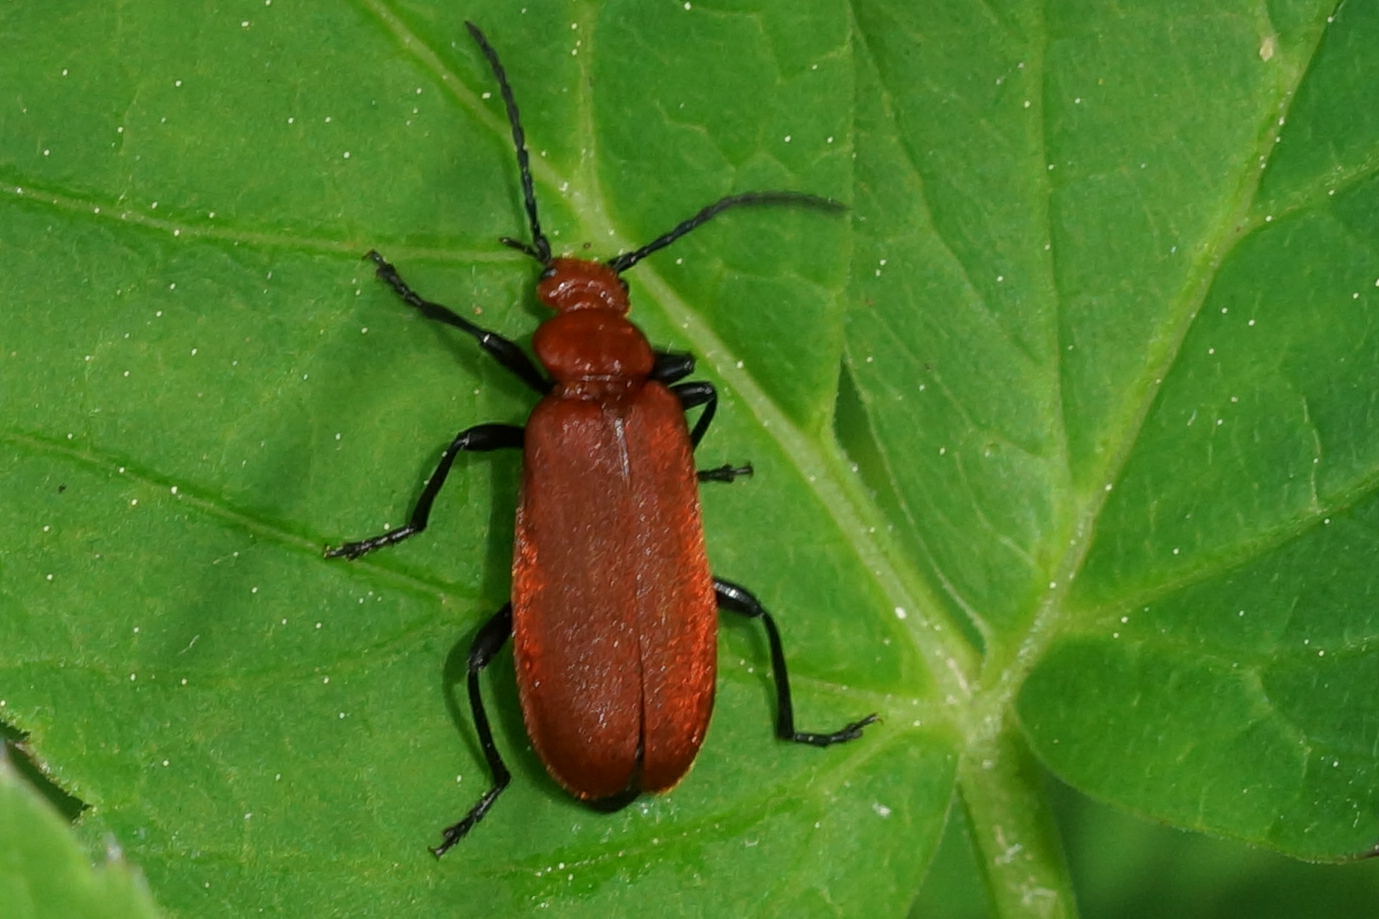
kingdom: Animalia
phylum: Arthropoda
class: Insecta
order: Coleoptera
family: Pyrochroidae
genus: Pyrochroa
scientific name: Pyrochroa serraticornis
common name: Rødhovedet kardinalbille
